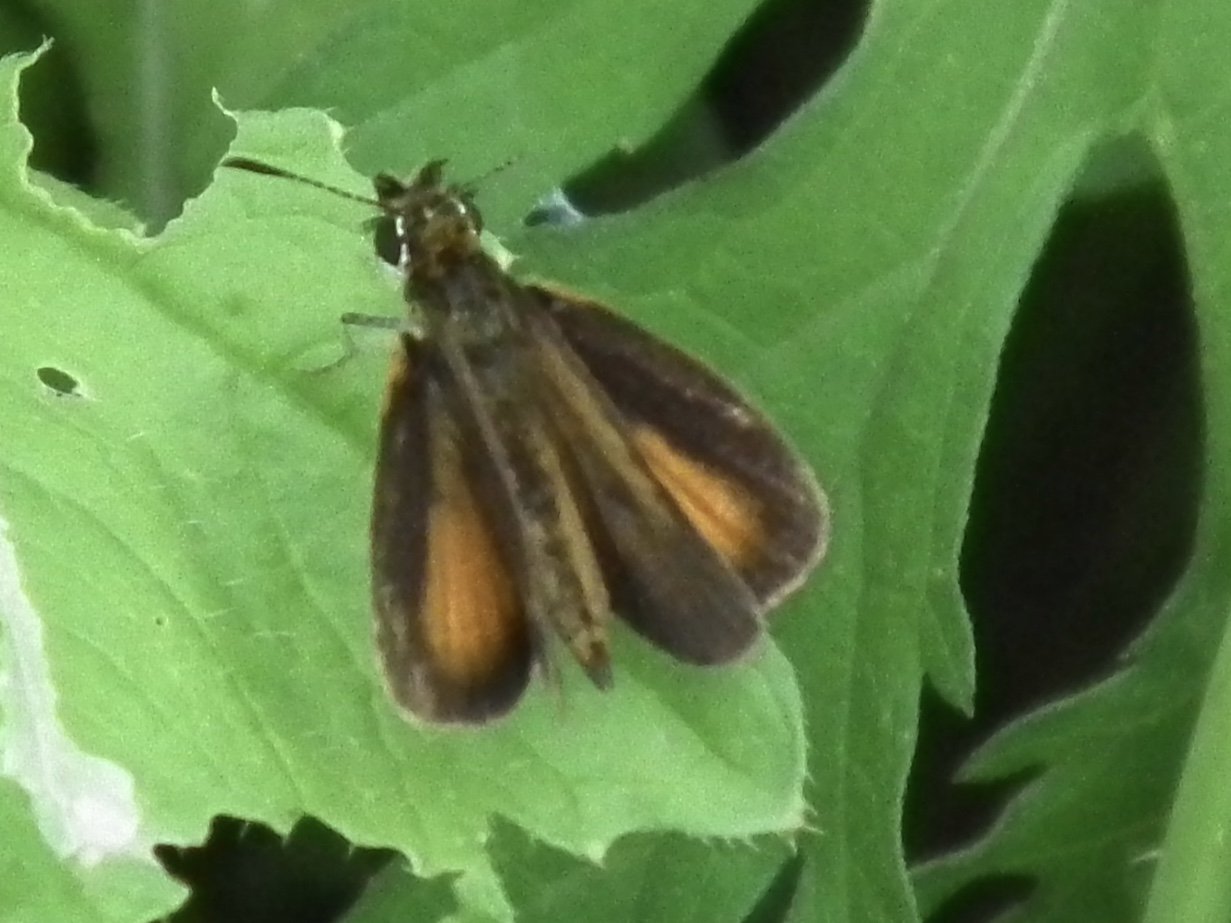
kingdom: Animalia
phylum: Arthropoda
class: Insecta
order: Lepidoptera
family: Hesperiidae
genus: Ancyloxypha
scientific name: Ancyloxypha numitor
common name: Least Skipper
